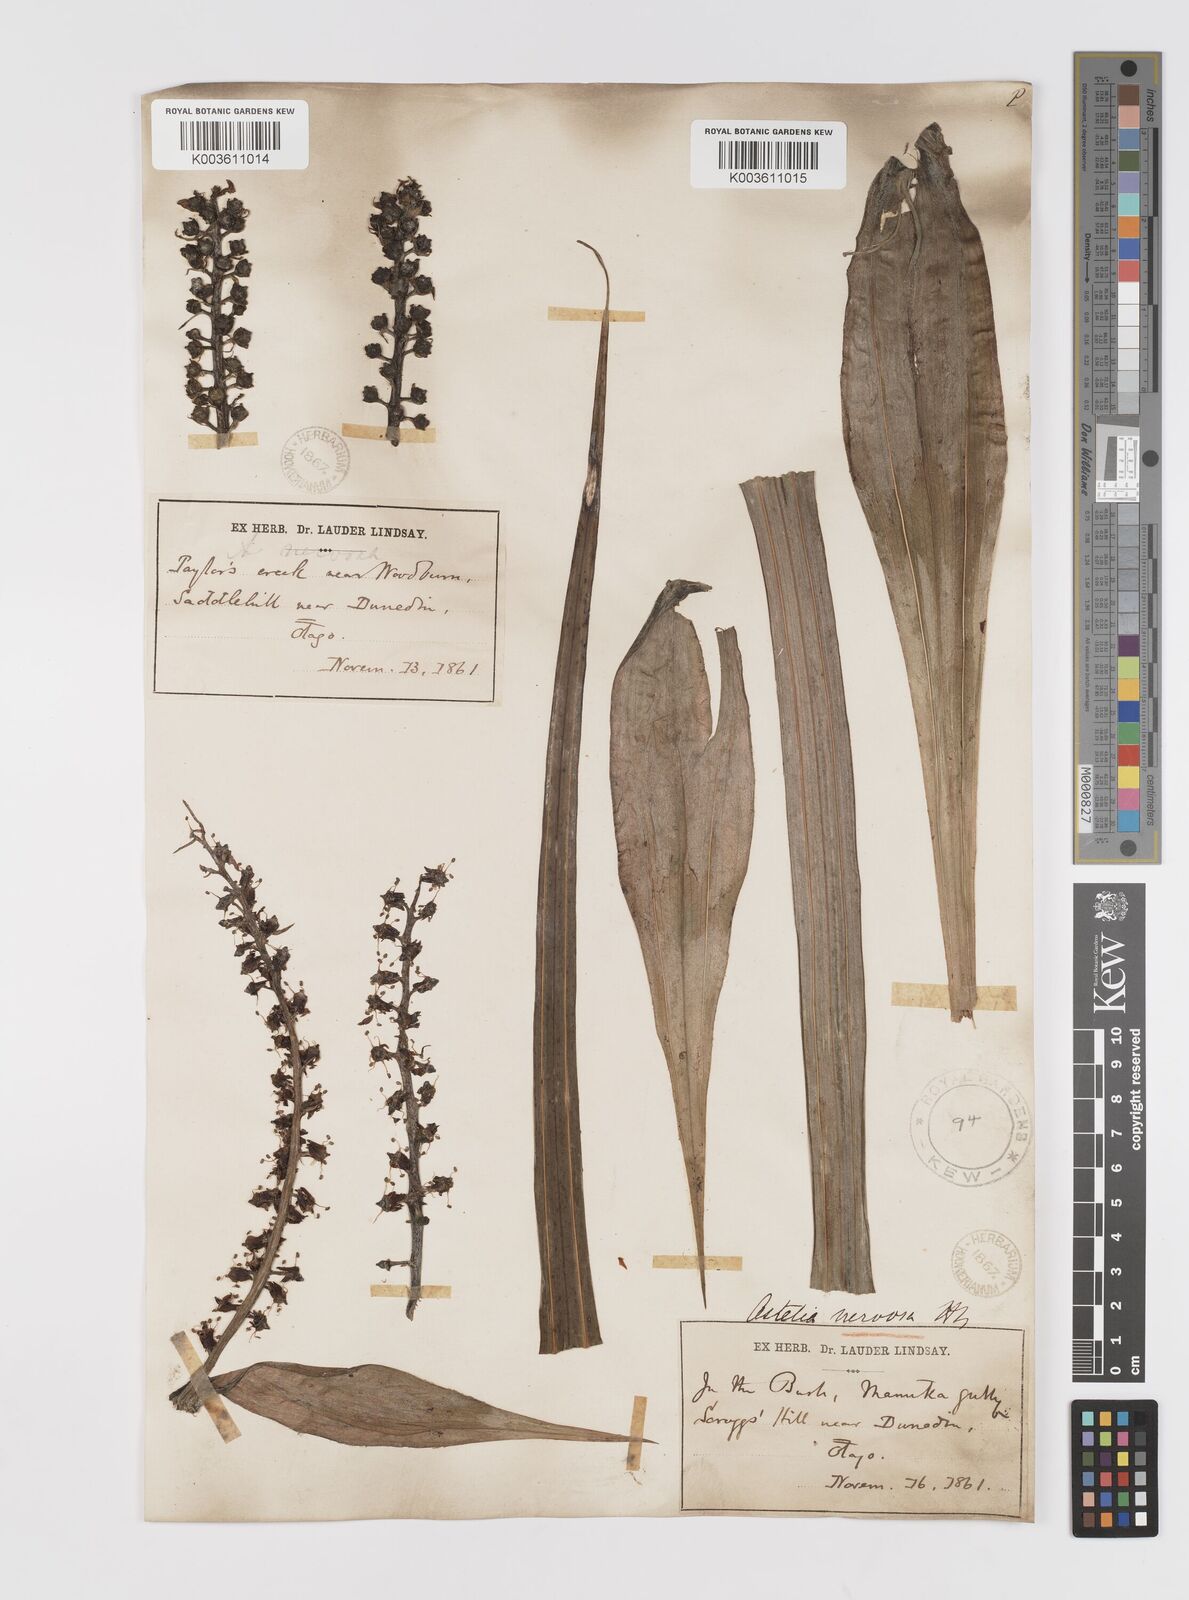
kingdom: Plantae
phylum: Tracheophyta
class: Liliopsida
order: Asparagales
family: Asteliaceae
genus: Astelia
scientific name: Astelia nervosa
